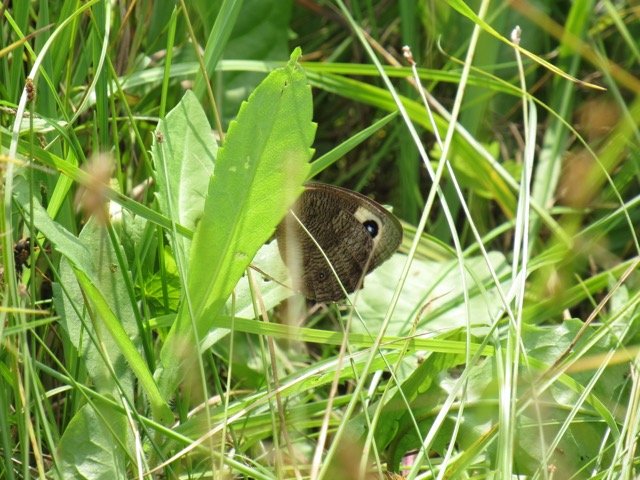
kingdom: Animalia
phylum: Arthropoda
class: Insecta
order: Lepidoptera
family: Nymphalidae
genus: Cercyonis
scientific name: Cercyonis pegala
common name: Common Wood-Nymph
